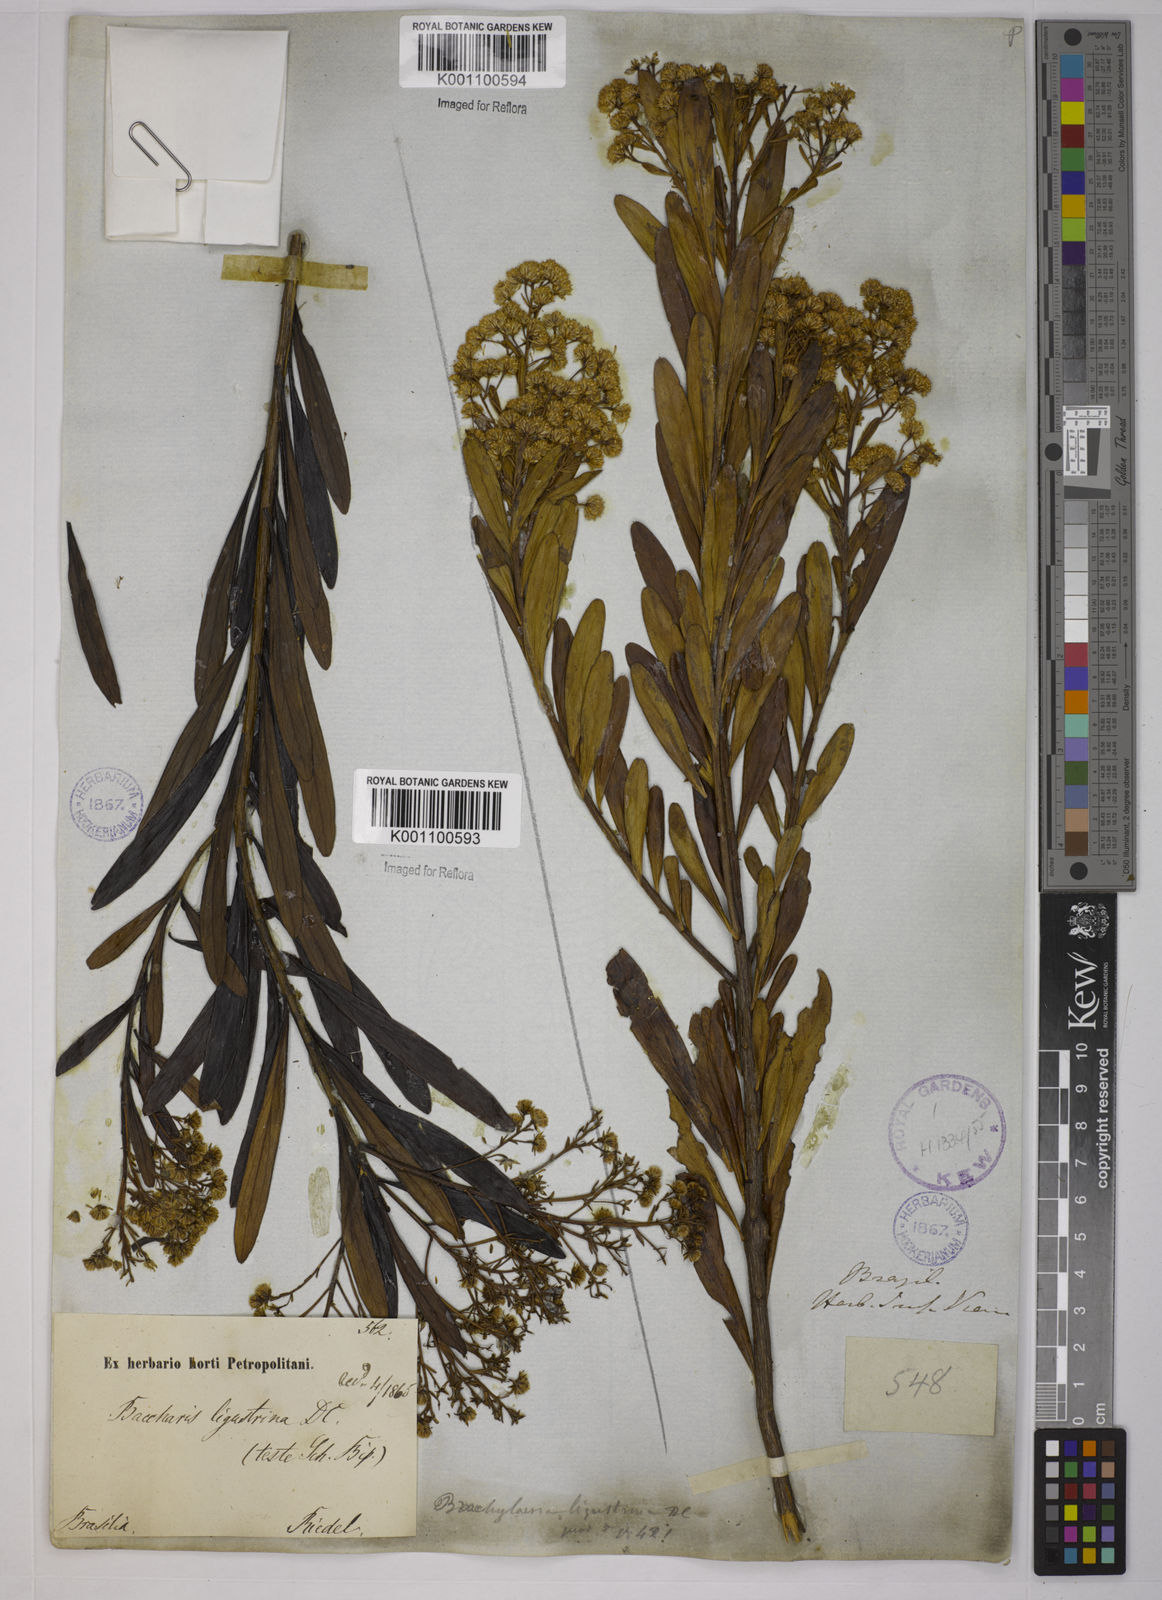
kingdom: Plantae
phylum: Tracheophyta
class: Magnoliopsida
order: Asterales
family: Asteraceae
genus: Baccharis
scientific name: Baccharis ligustrina
